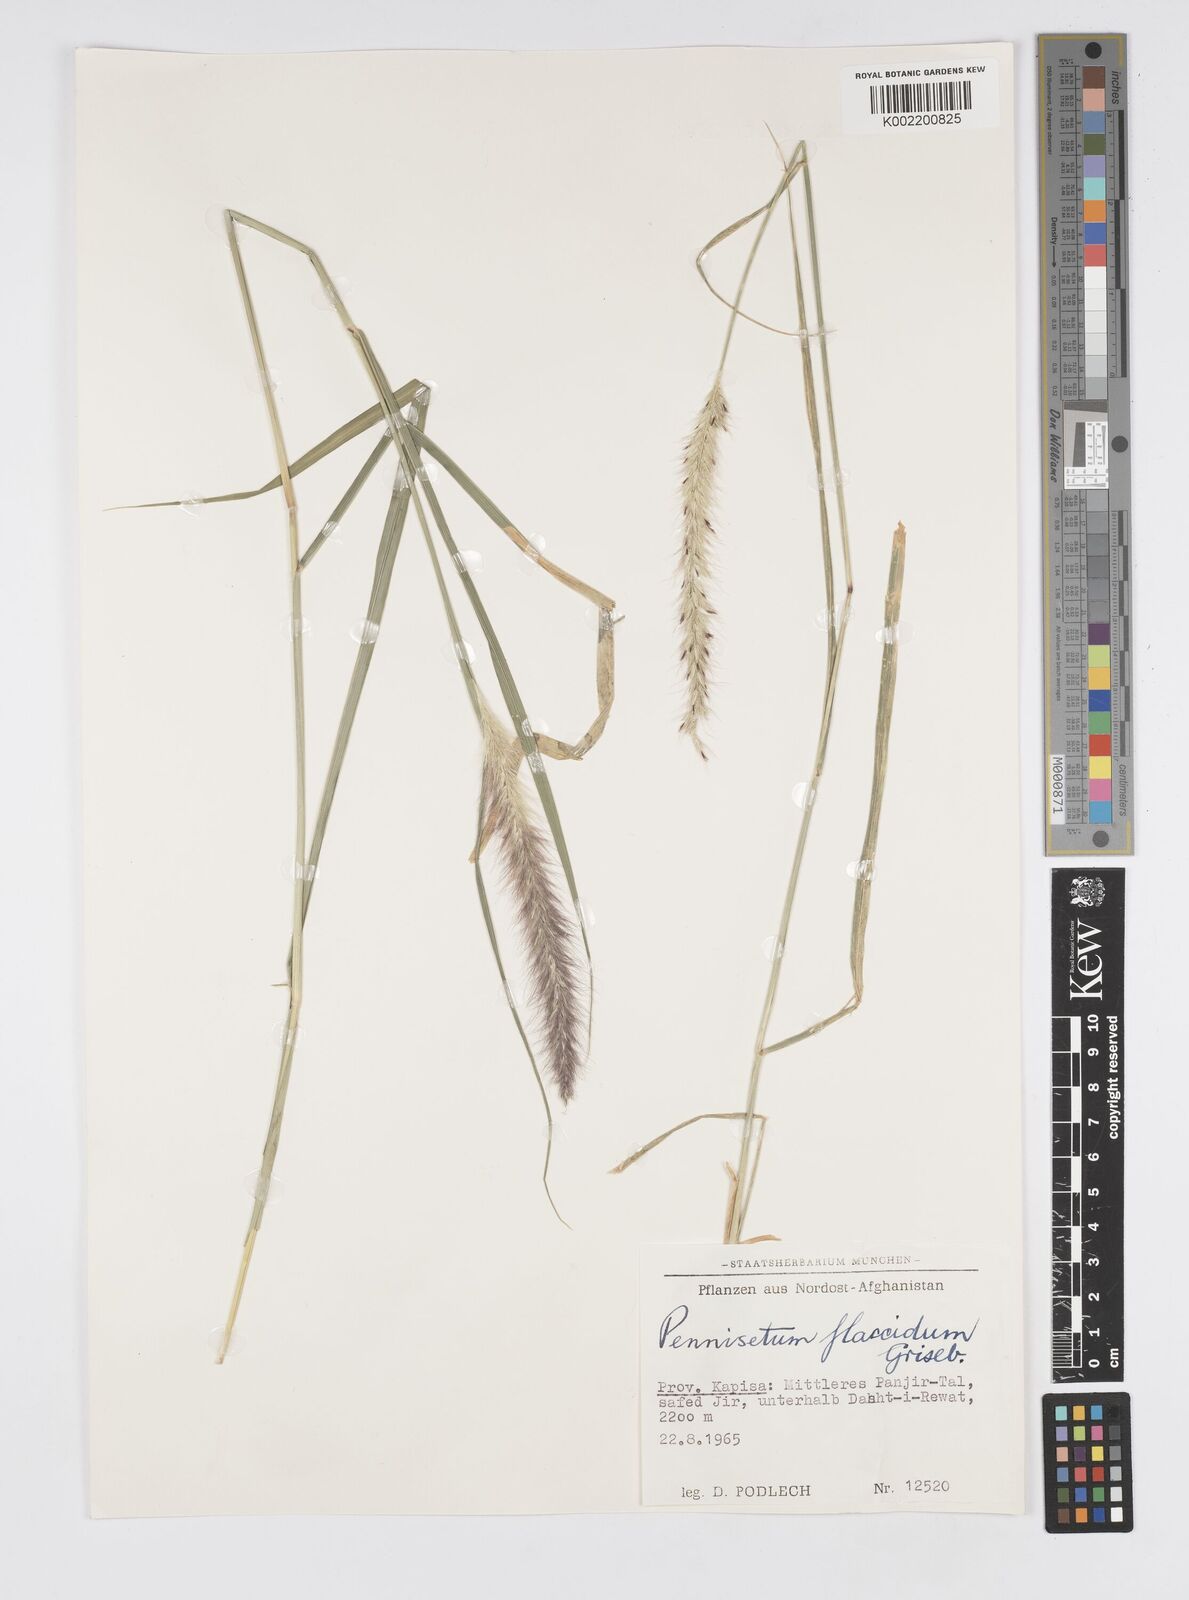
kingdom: Plantae
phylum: Tracheophyta
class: Liliopsida
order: Poales
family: Poaceae
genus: Cenchrus
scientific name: Cenchrus flaccidus
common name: Flaccid grass
